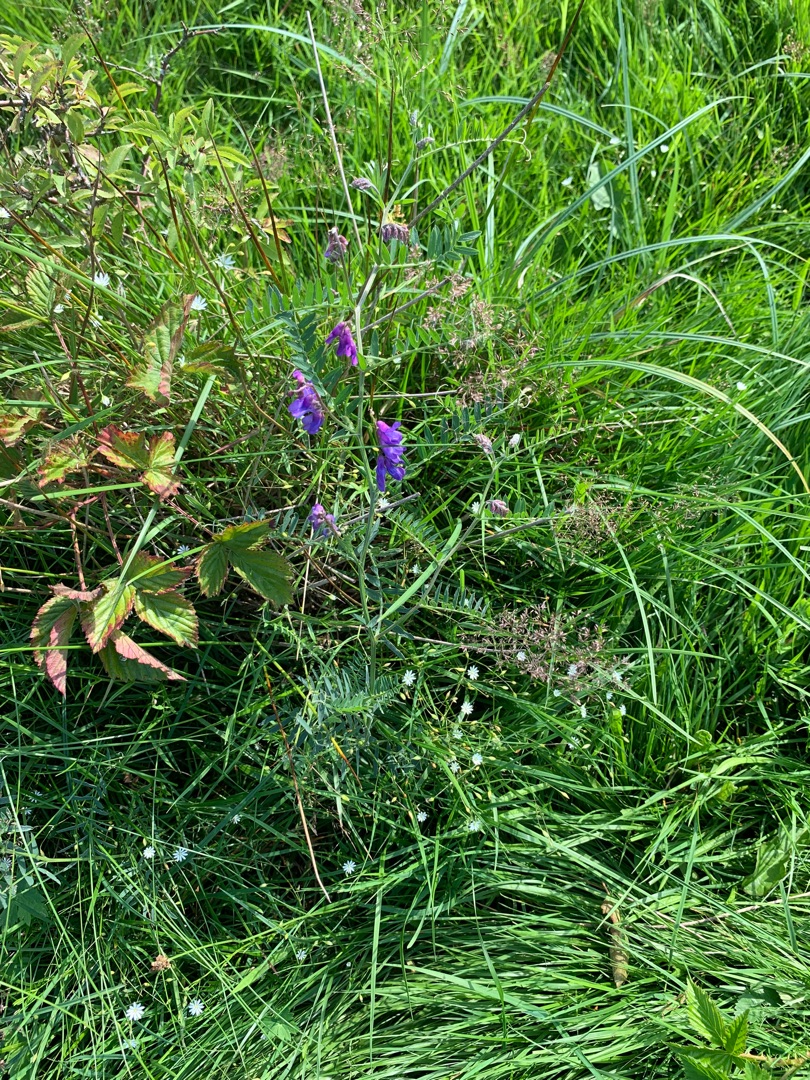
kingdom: Plantae
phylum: Tracheophyta
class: Magnoliopsida
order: Fabales
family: Fabaceae
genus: Vicia
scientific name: Vicia cracca
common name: Muse-vikke
